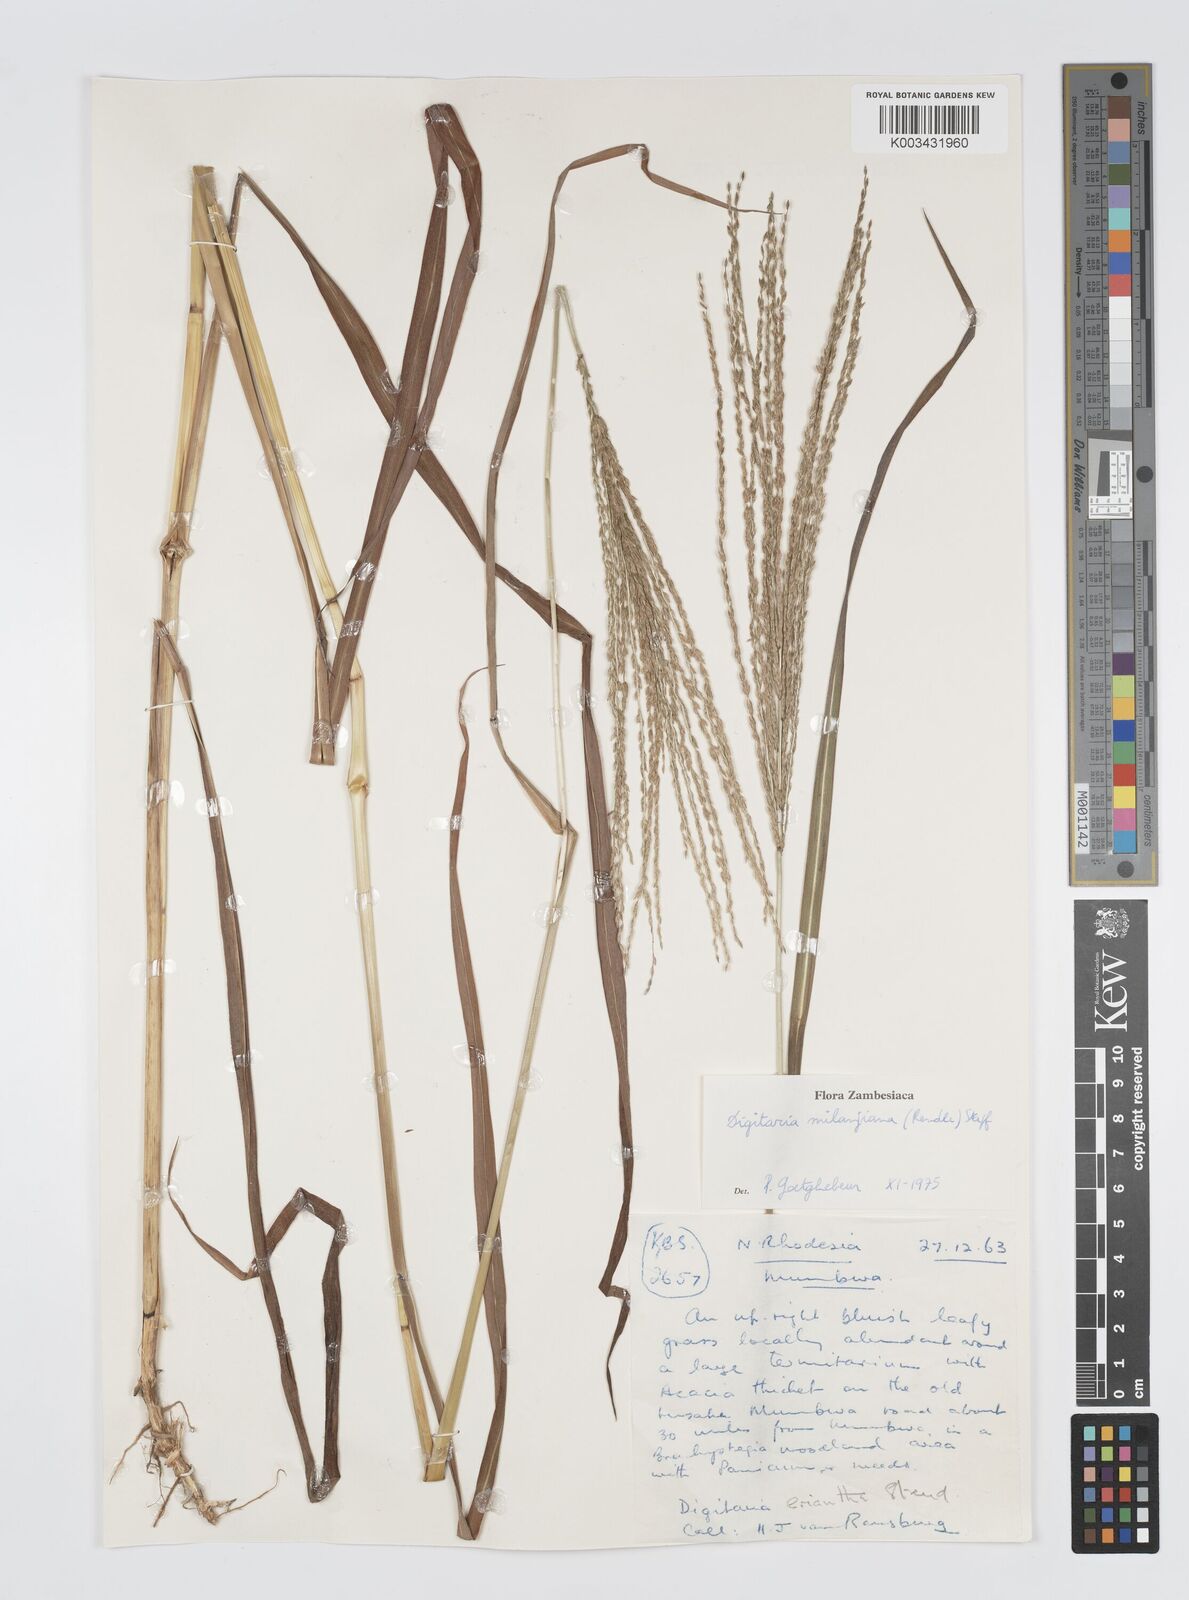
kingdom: Plantae
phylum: Tracheophyta
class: Liliopsida
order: Poales
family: Poaceae
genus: Digitaria
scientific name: Digitaria milanjiana
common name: Madagascar crabgrass
